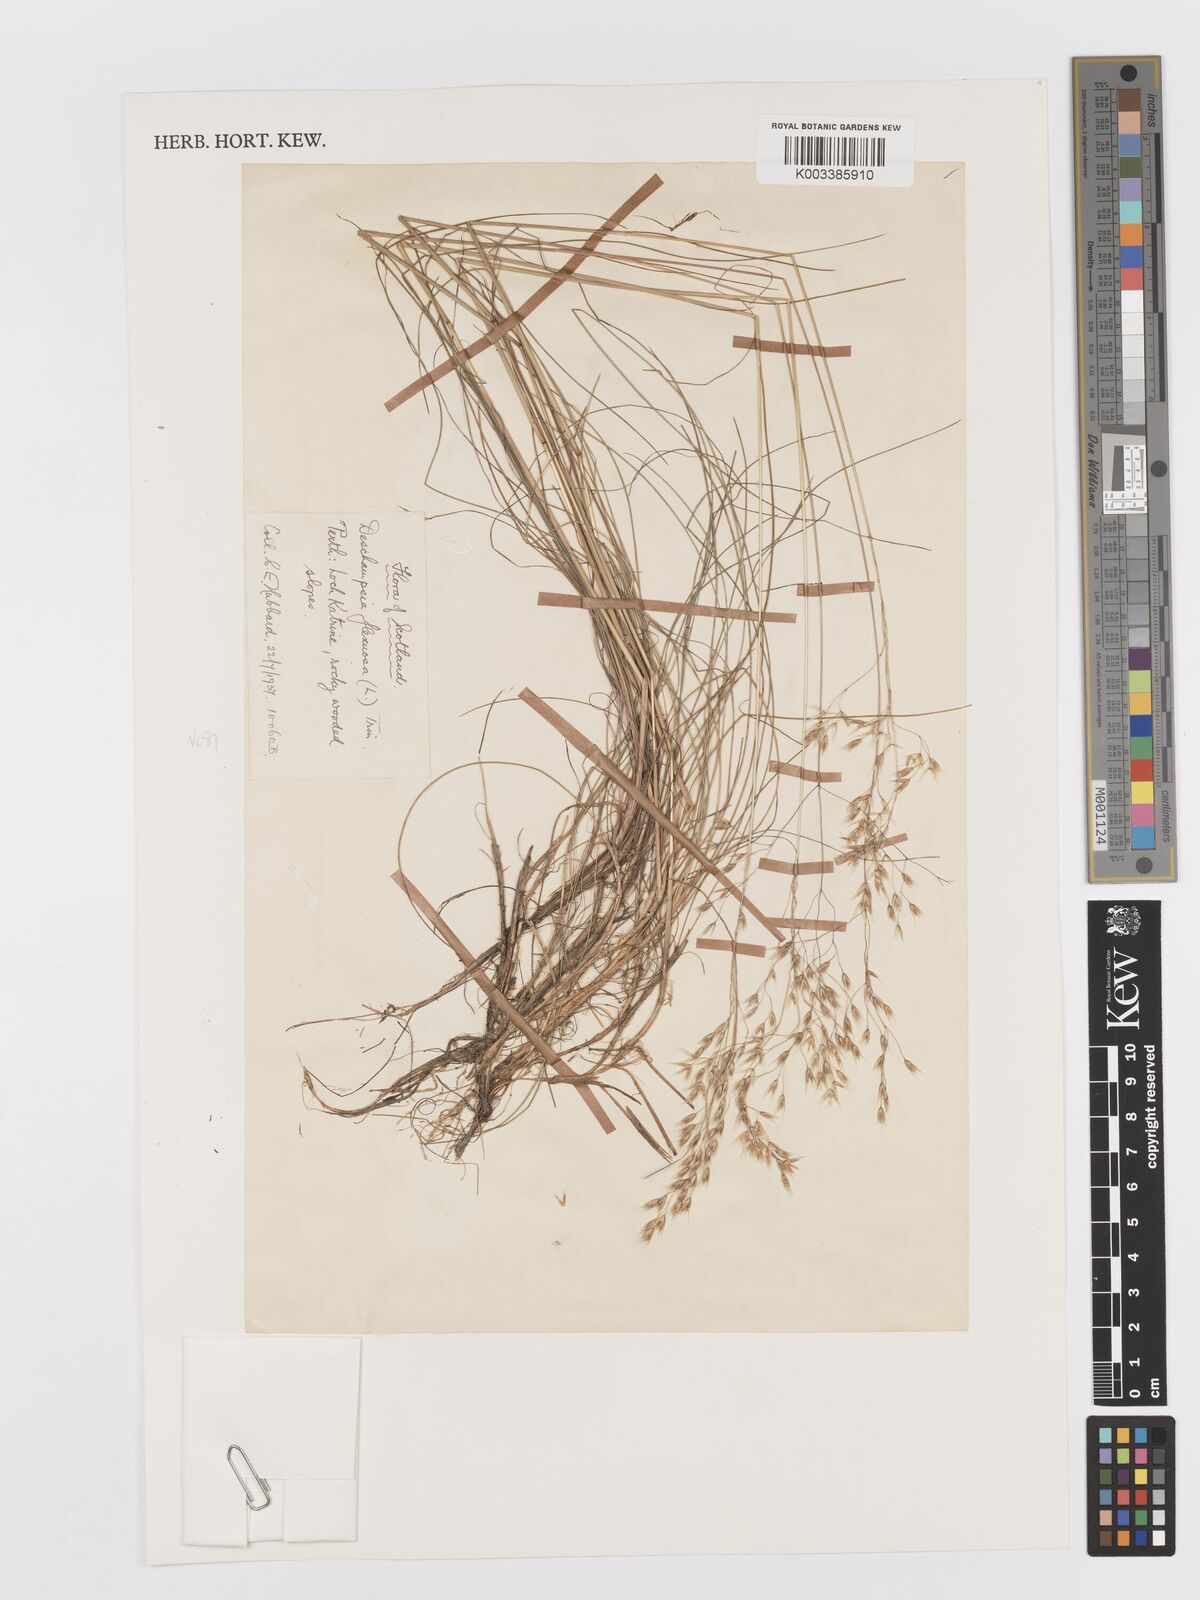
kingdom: Plantae
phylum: Tracheophyta
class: Liliopsida
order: Poales
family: Poaceae
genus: Avenella
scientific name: Avenella flexuosa
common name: Wavy hairgrass
